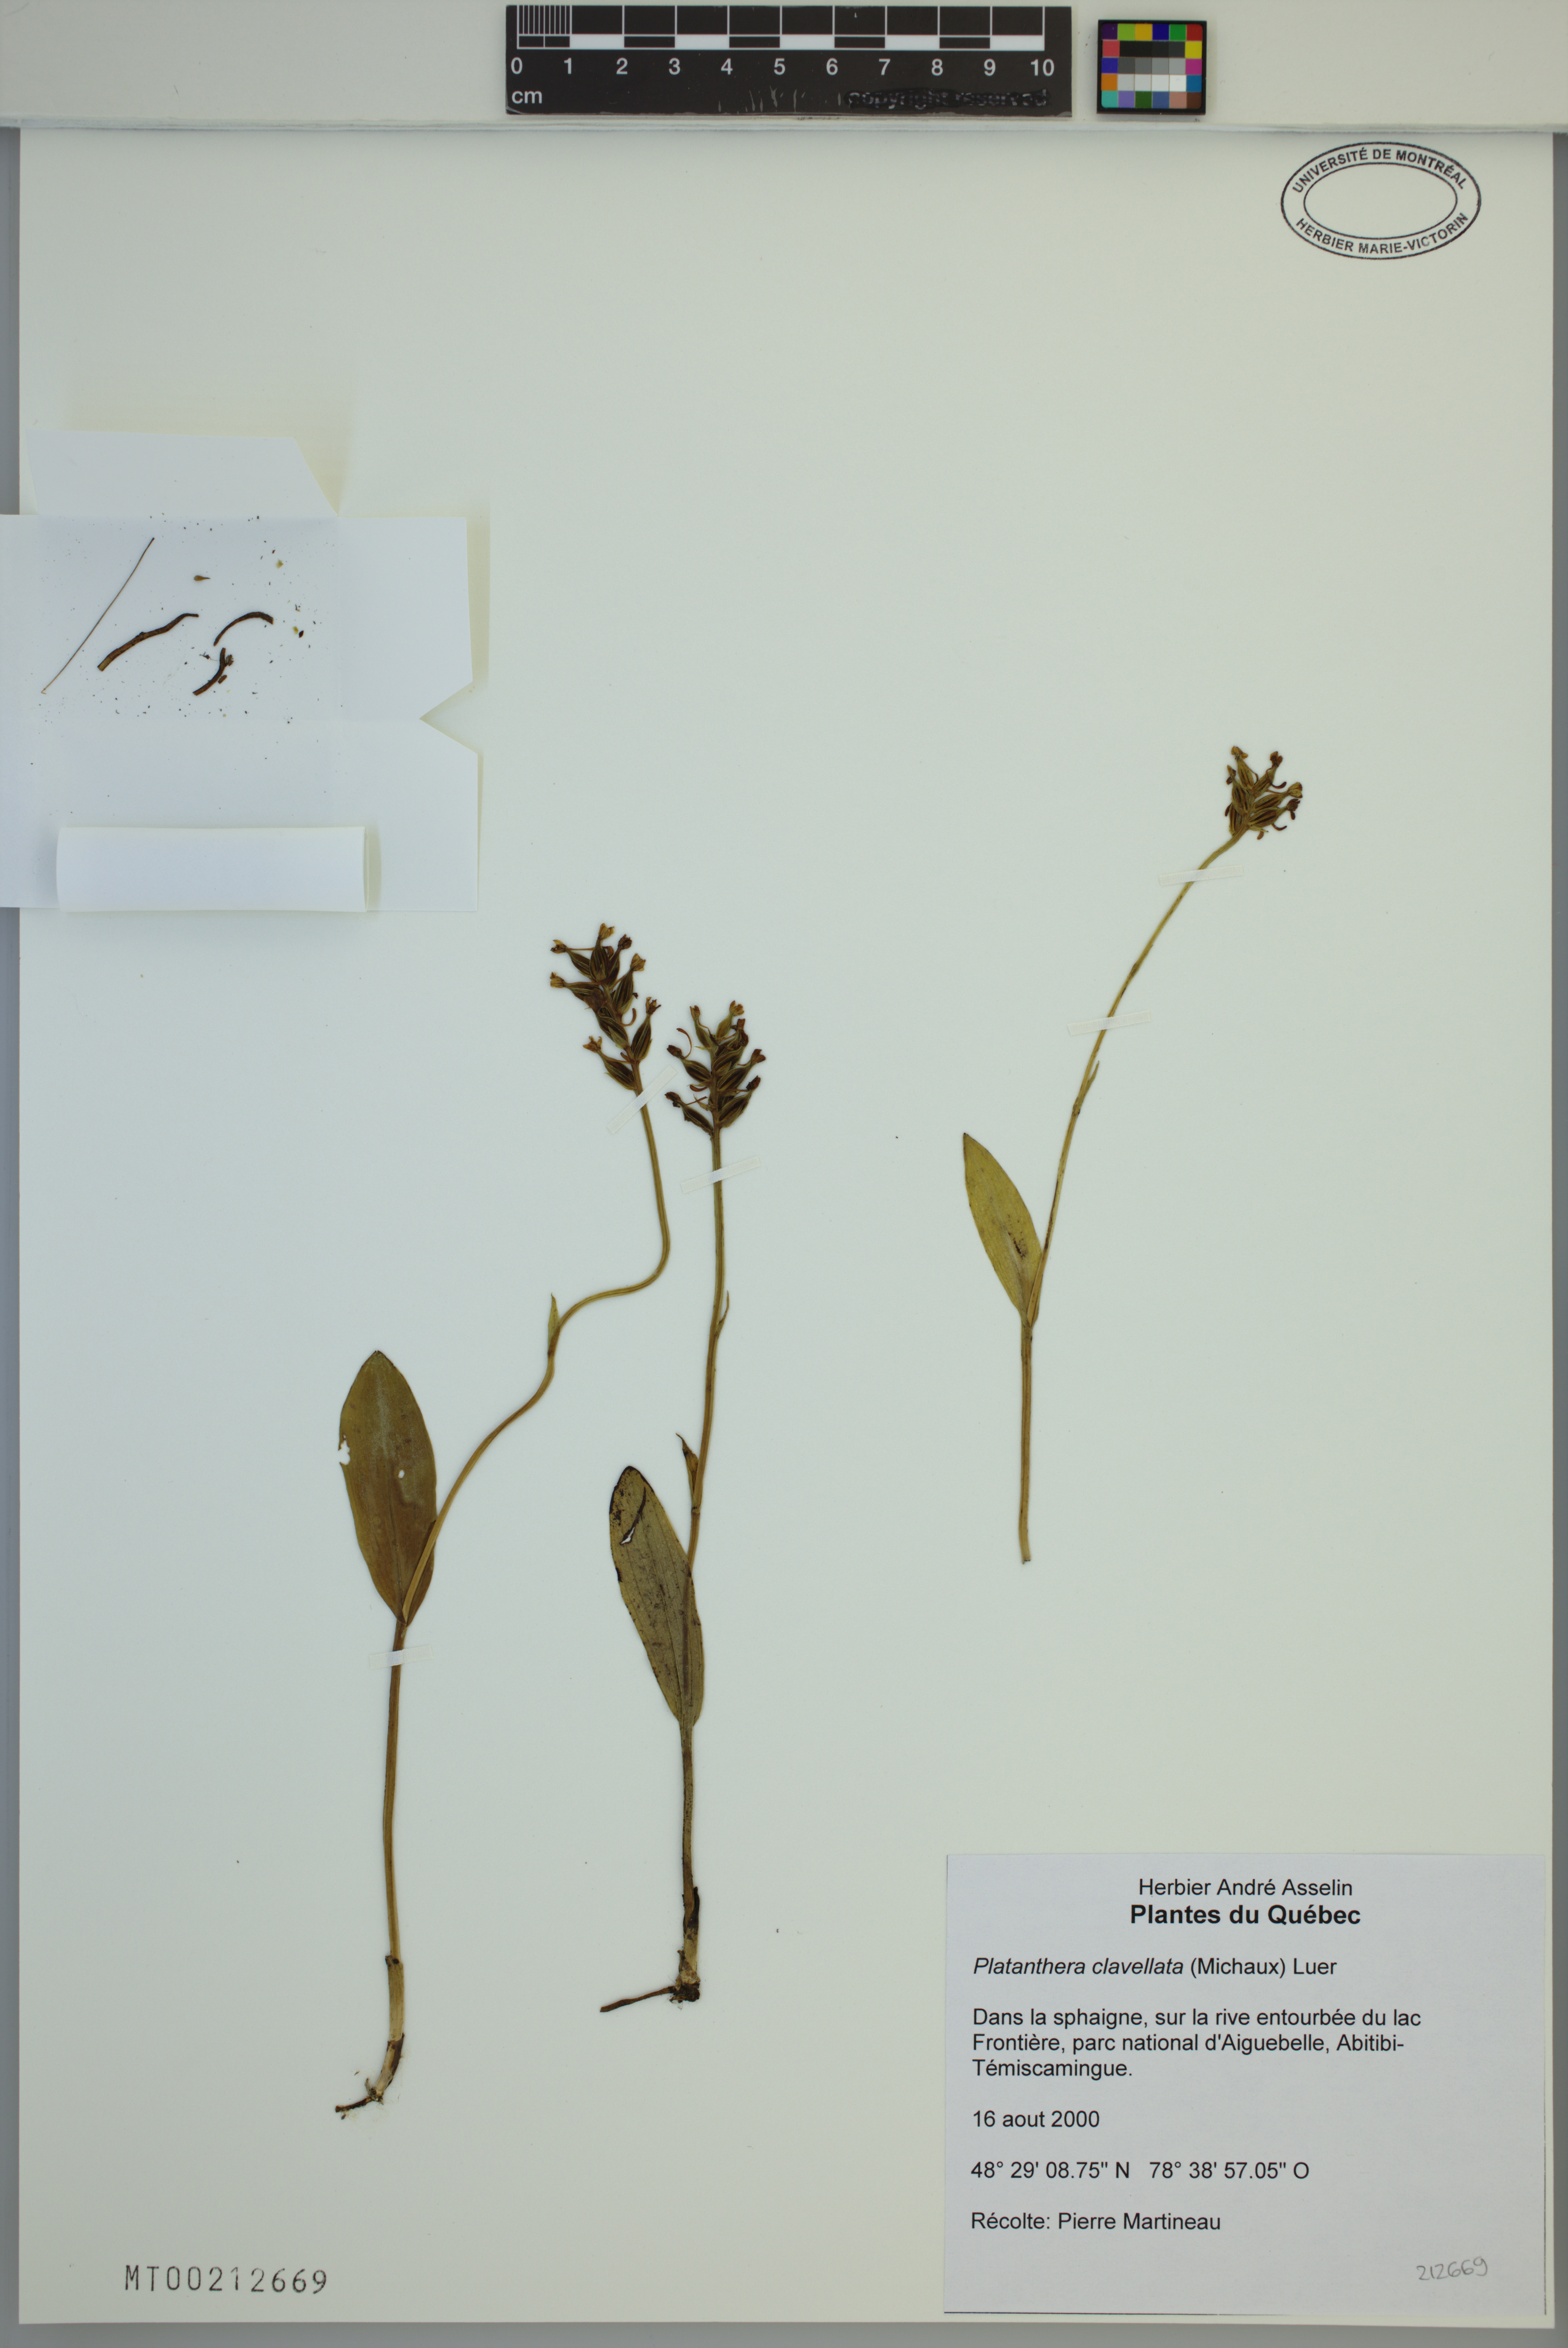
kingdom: Plantae
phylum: Tracheophyta
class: Liliopsida
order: Asparagales
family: Orchidaceae
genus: Platanthera
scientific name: Platanthera clavellata
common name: Club-spur orchid
